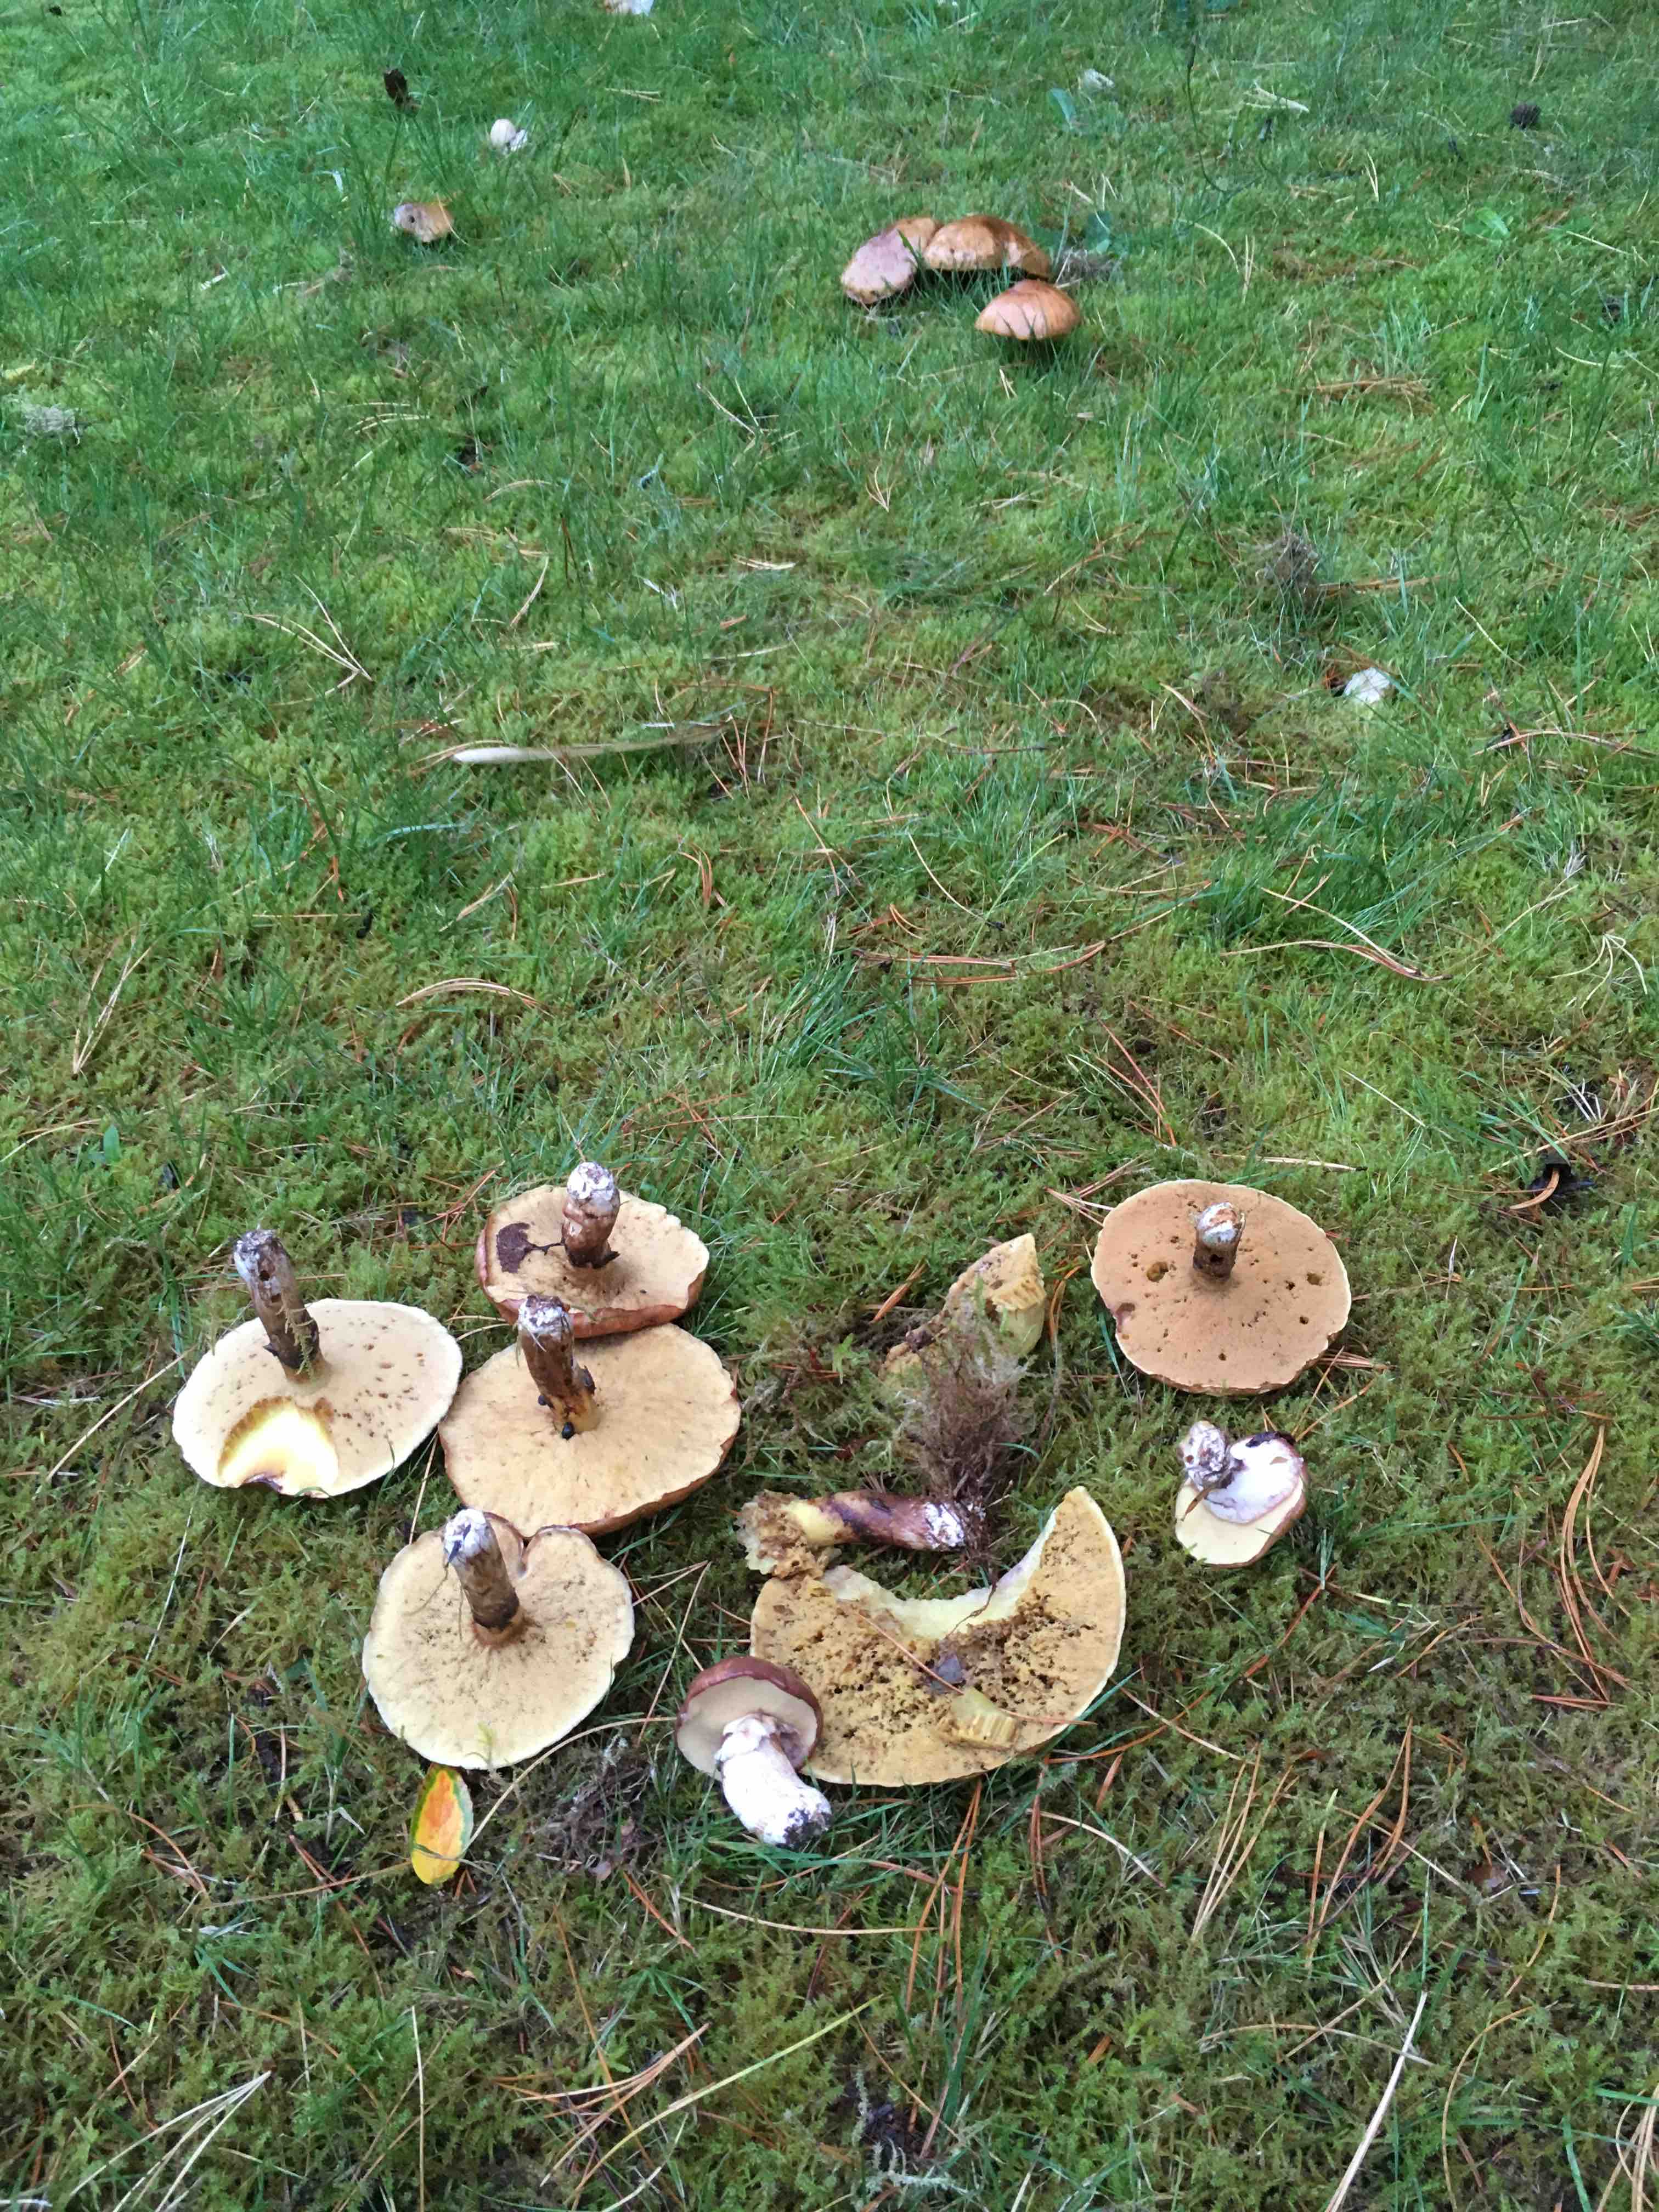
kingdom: Fungi
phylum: Basidiomycota
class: Agaricomycetes
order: Boletales
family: Suillaceae
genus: Suillus
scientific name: Suillus luteus
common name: brungul slimrørhat
